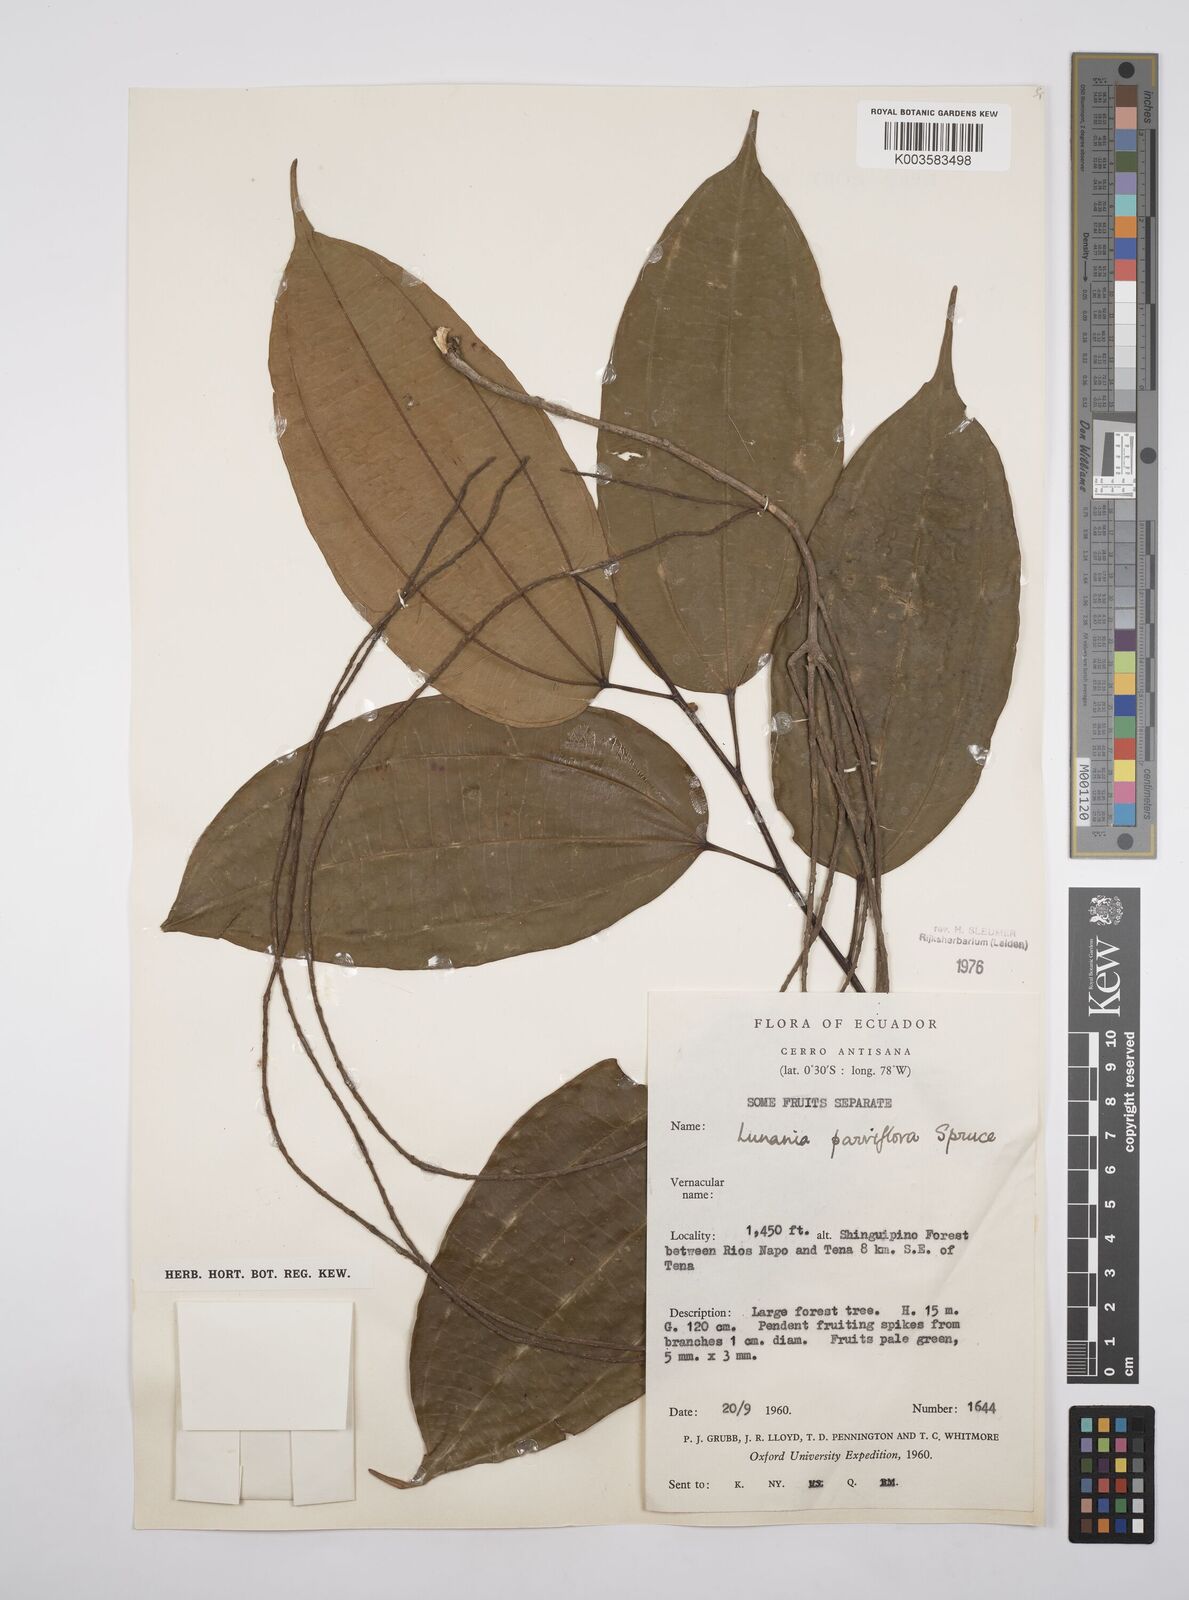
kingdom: Plantae
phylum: Tracheophyta
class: Magnoliopsida
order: Malpighiales
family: Salicaceae
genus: Lunania
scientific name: Lunania parviflora
